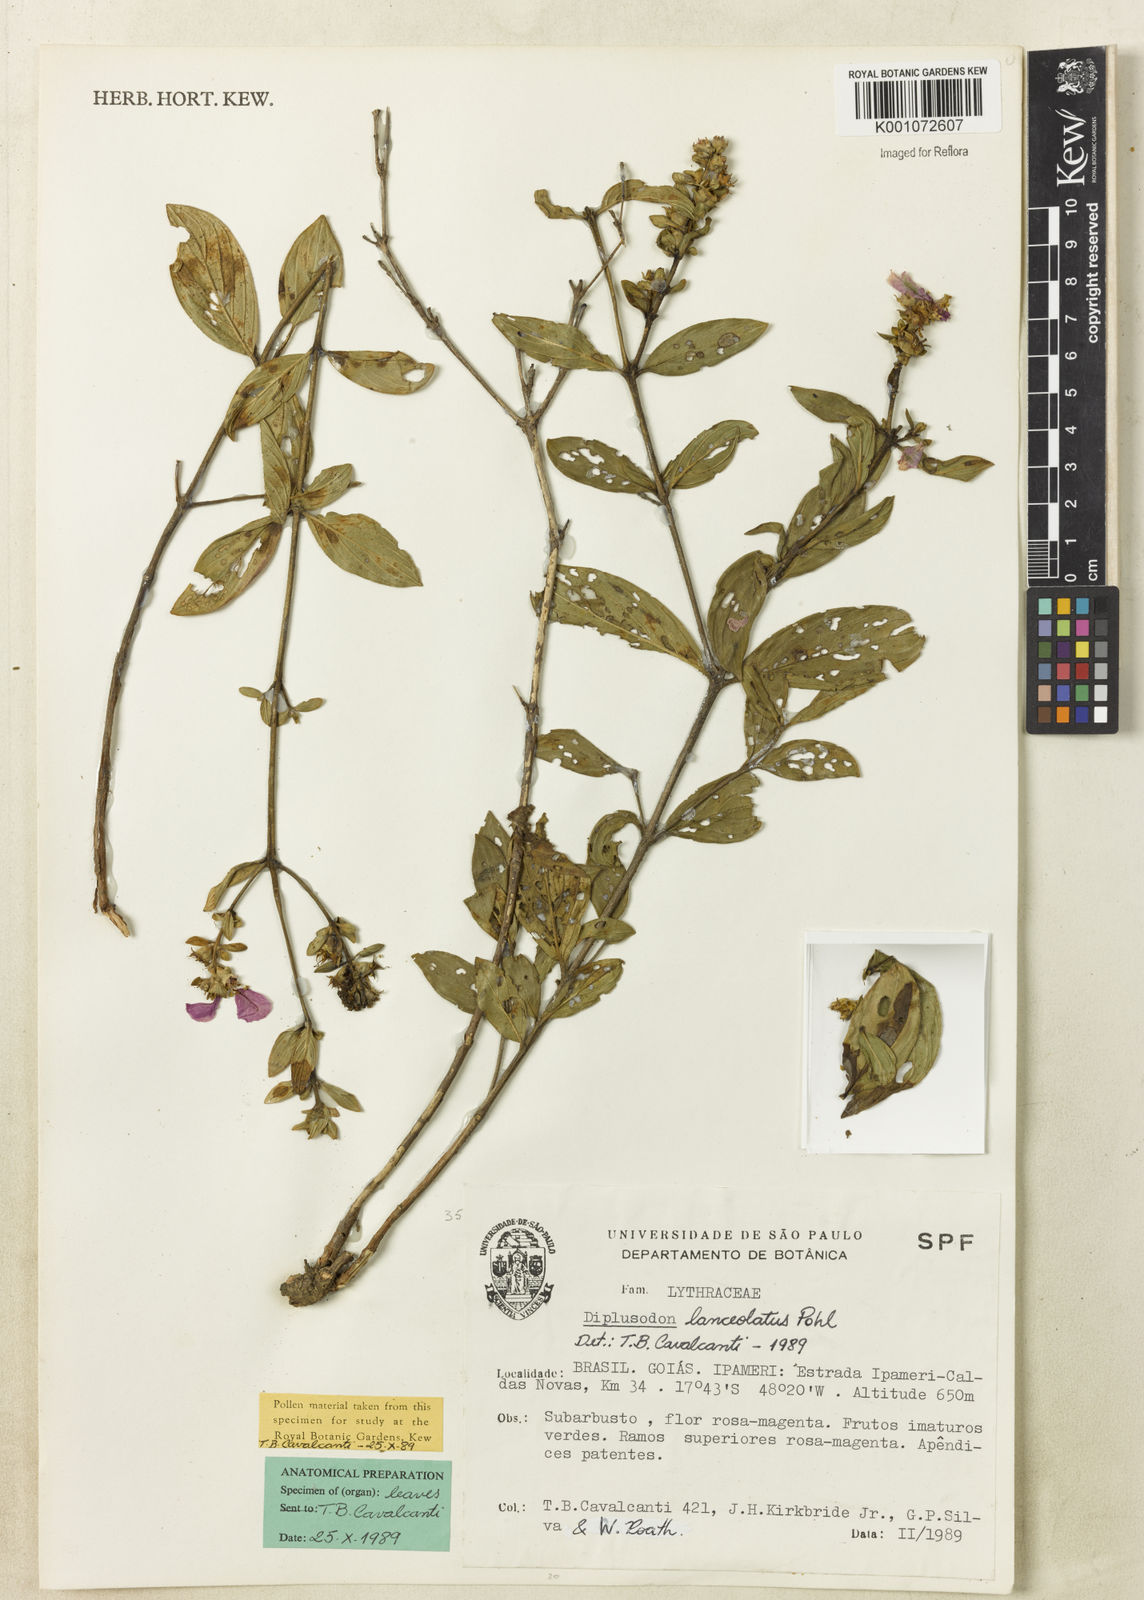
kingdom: Plantae
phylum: Tracheophyta
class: Magnoliopsida
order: Myrtales
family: Lythraceae
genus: Diplusodon
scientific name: Diplusodon lanceolatus
